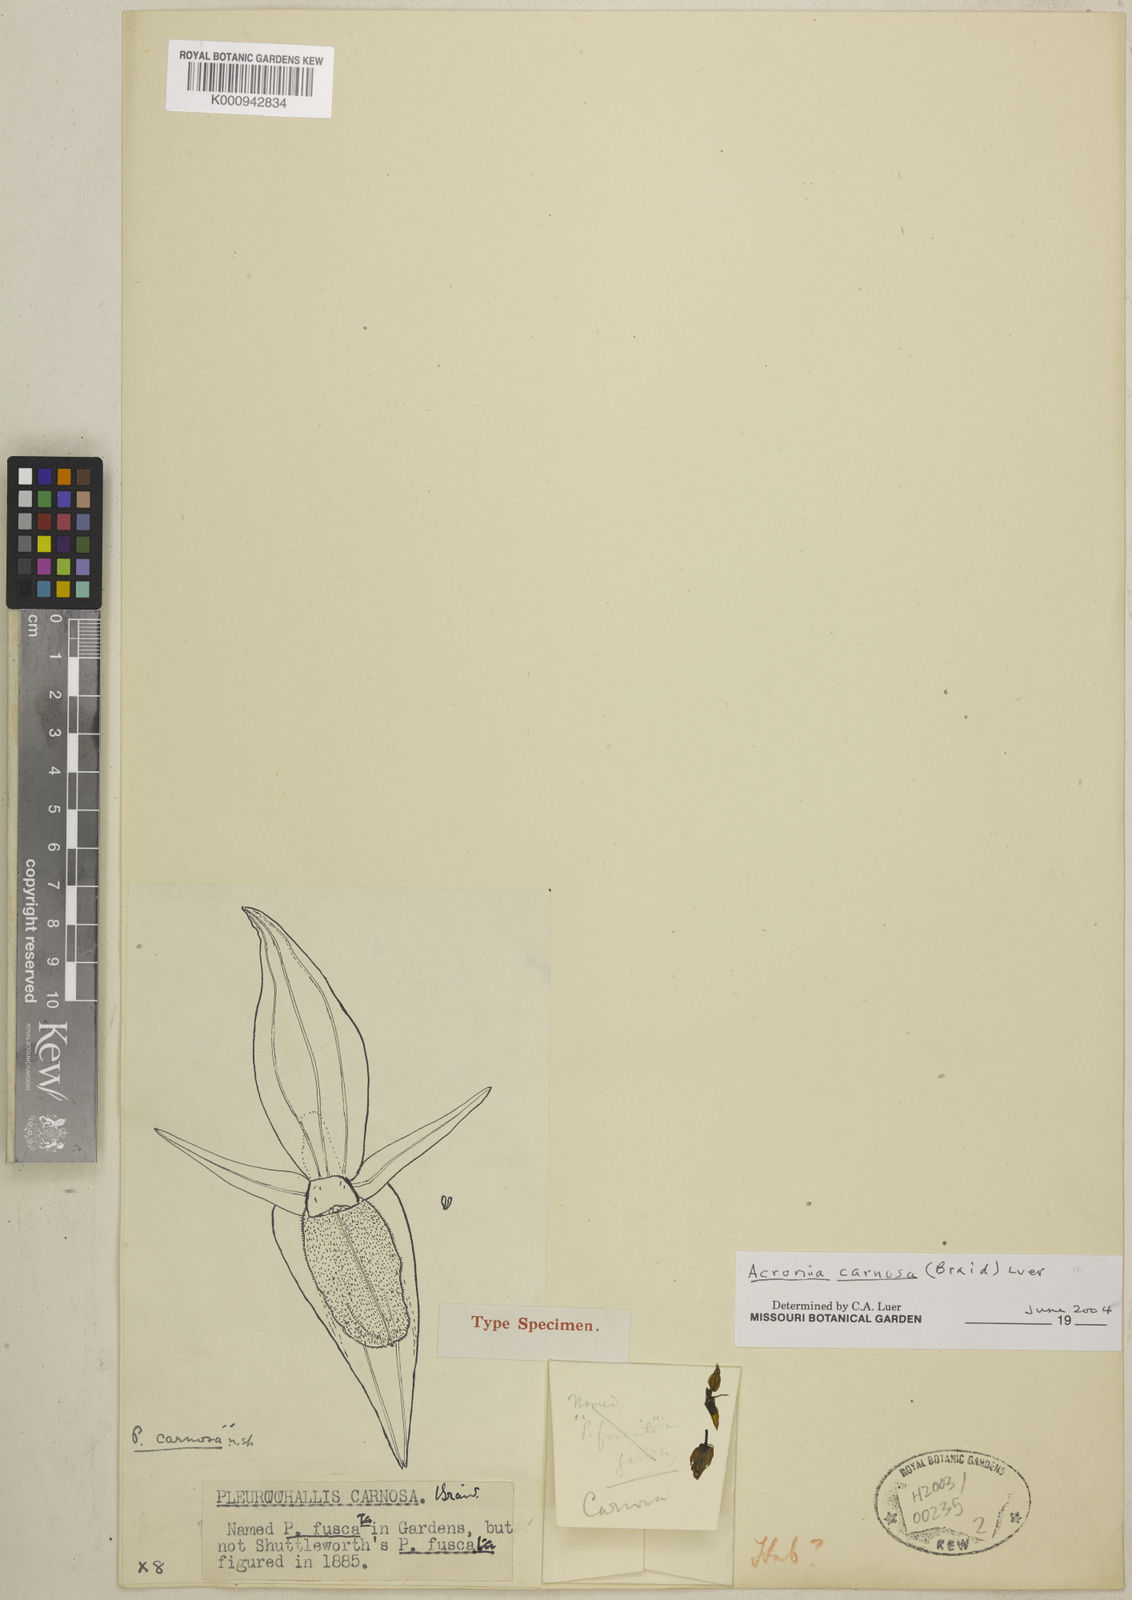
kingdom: Plantae
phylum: Tracheophyta
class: Liliopsida
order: Asparagales
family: Orchidaceae
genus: Pleurothallis
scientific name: Pleurothallis carnosa
